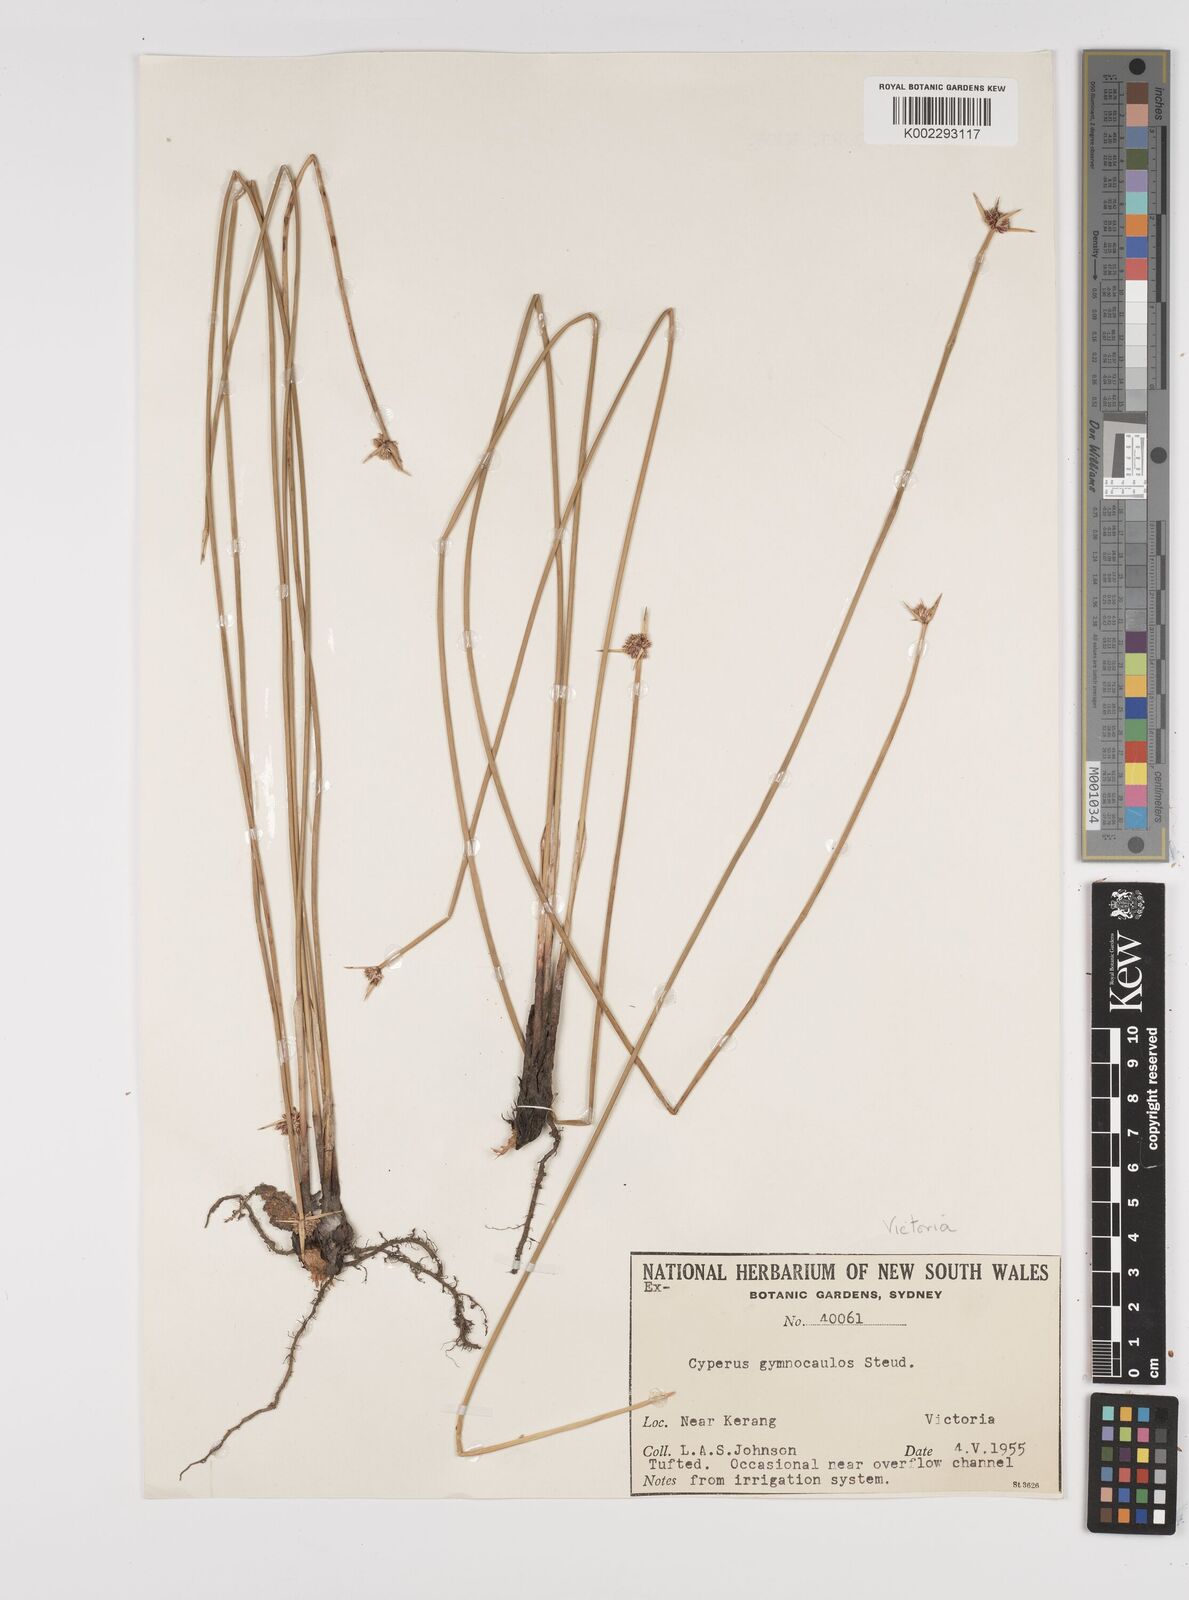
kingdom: Plantae
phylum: Tracheophyta
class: Liliopsida
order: Poales
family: Cyperaceae
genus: Cyperus
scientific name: Cyperus gymnocaulos
